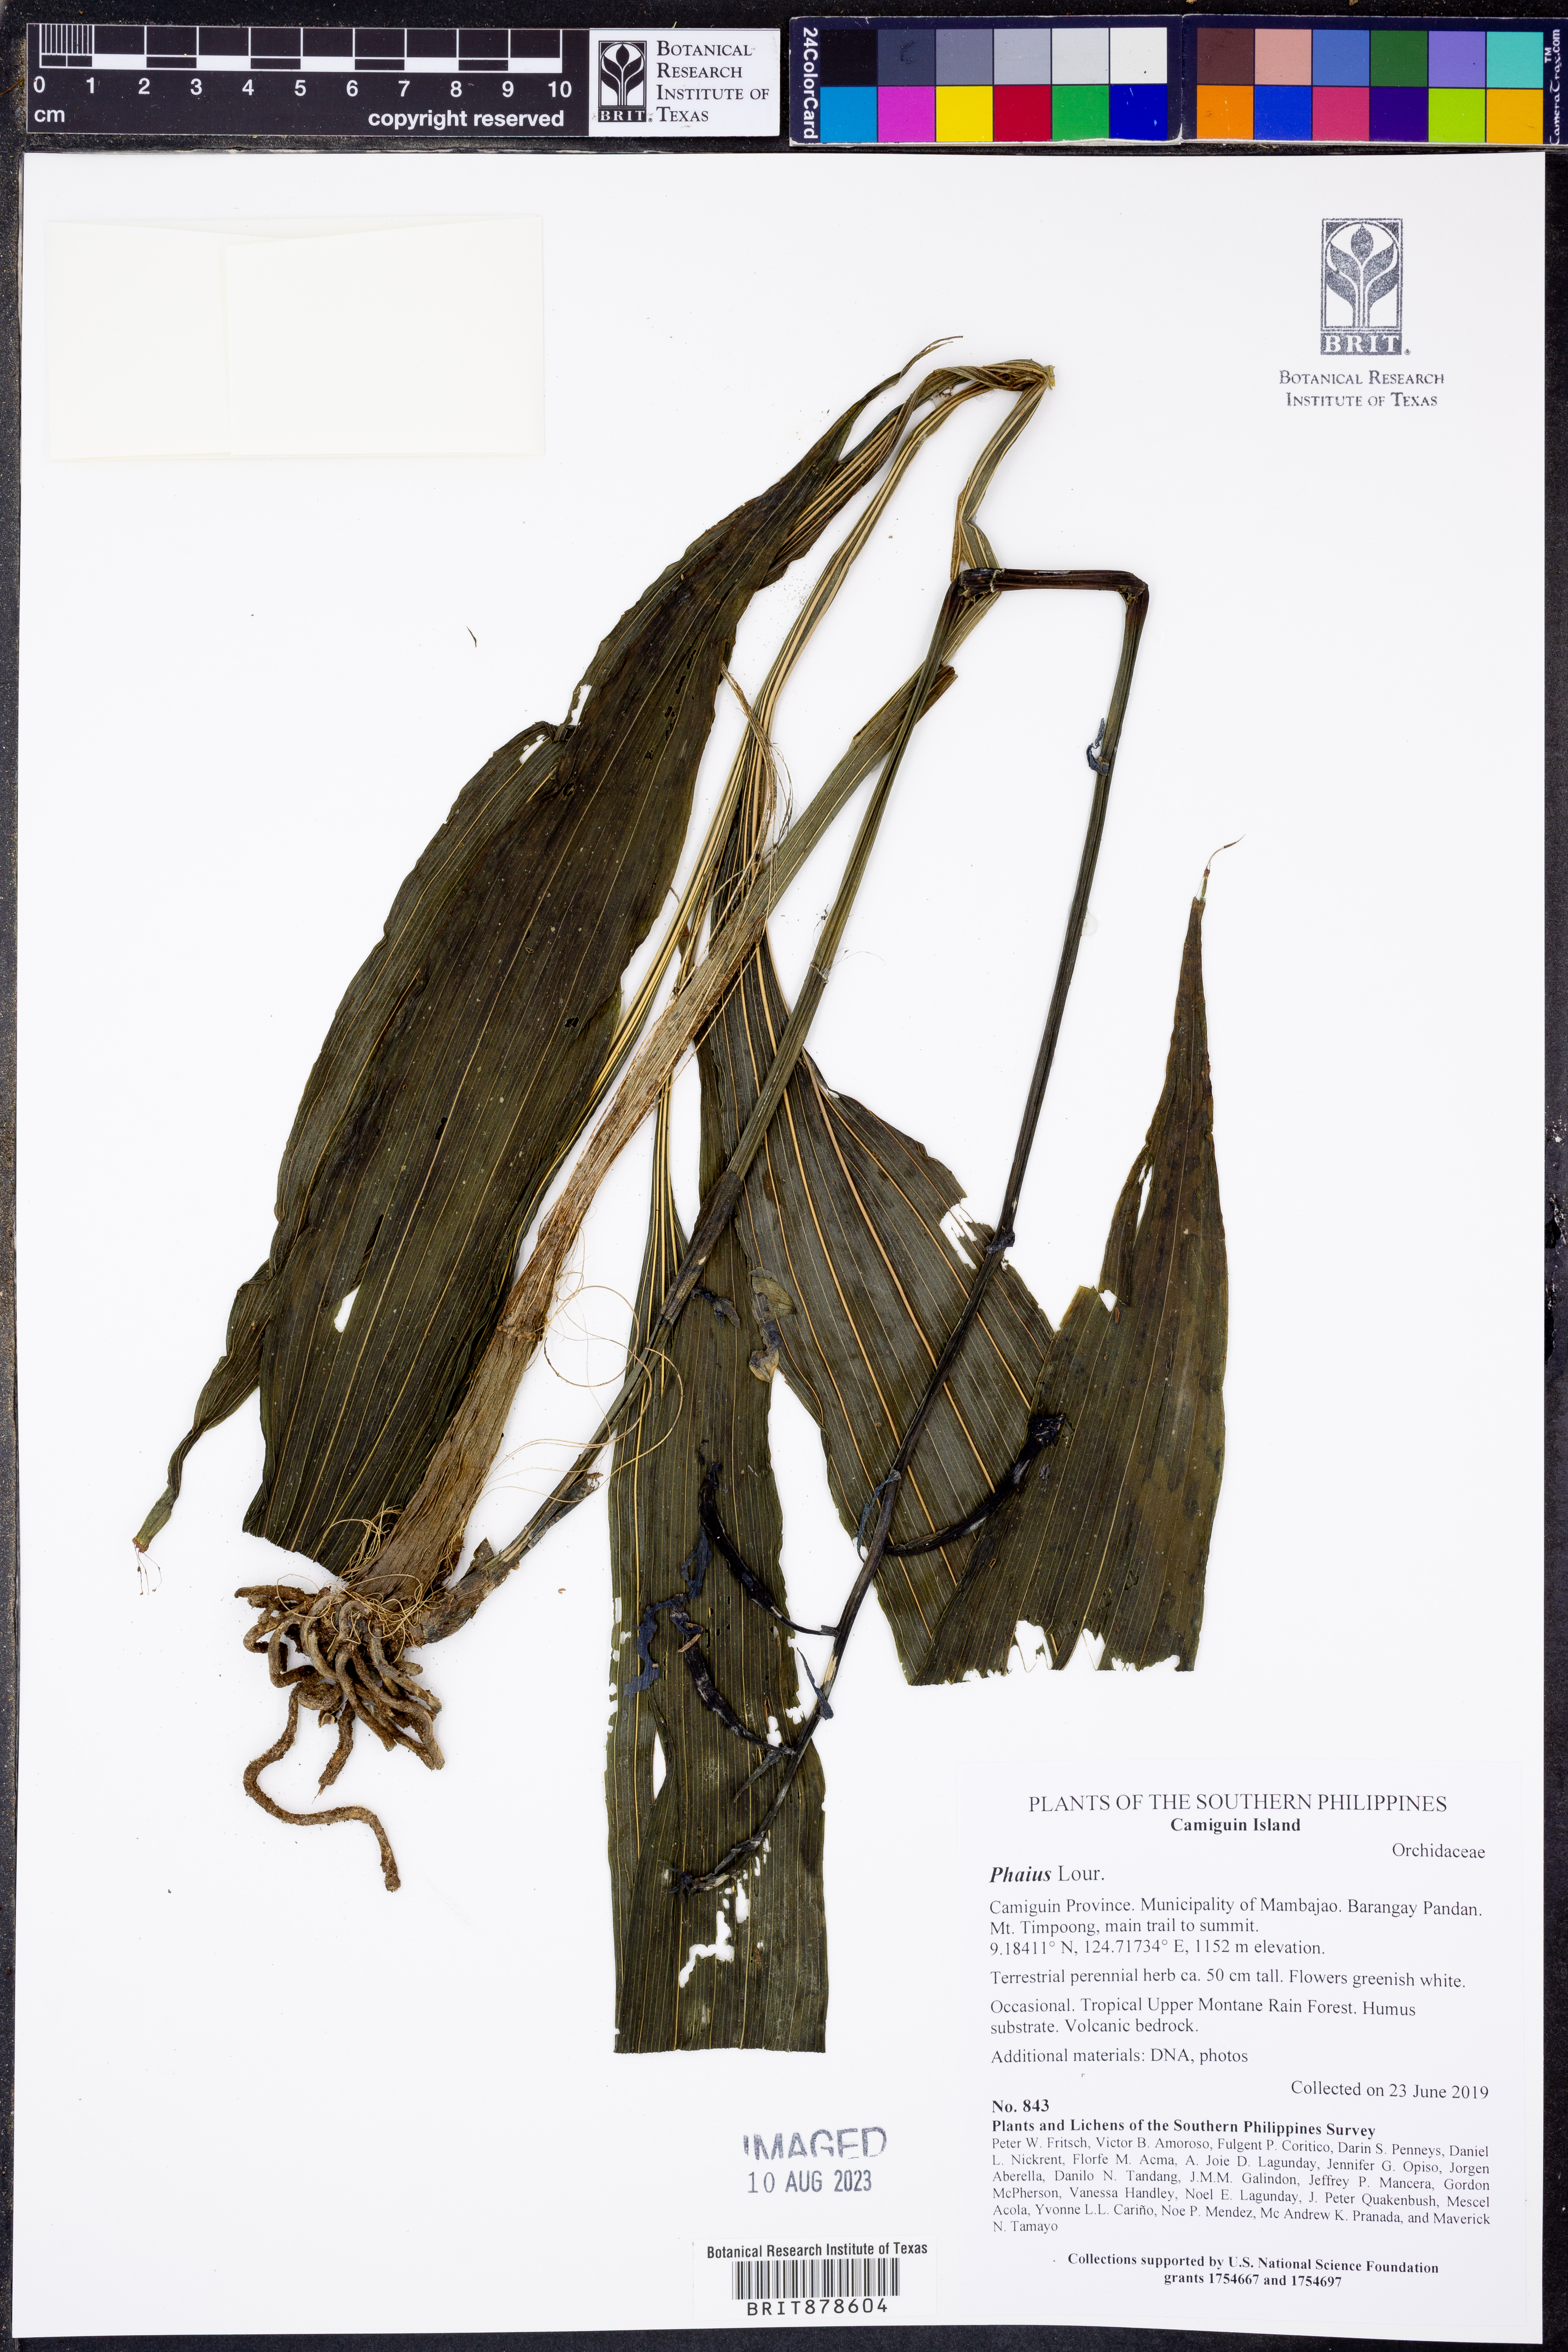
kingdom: Plantae
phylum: Tracheophyta
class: Liliopsida
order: Asparagales
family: Orchidaceae
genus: Calanthe
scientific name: Calanthe
